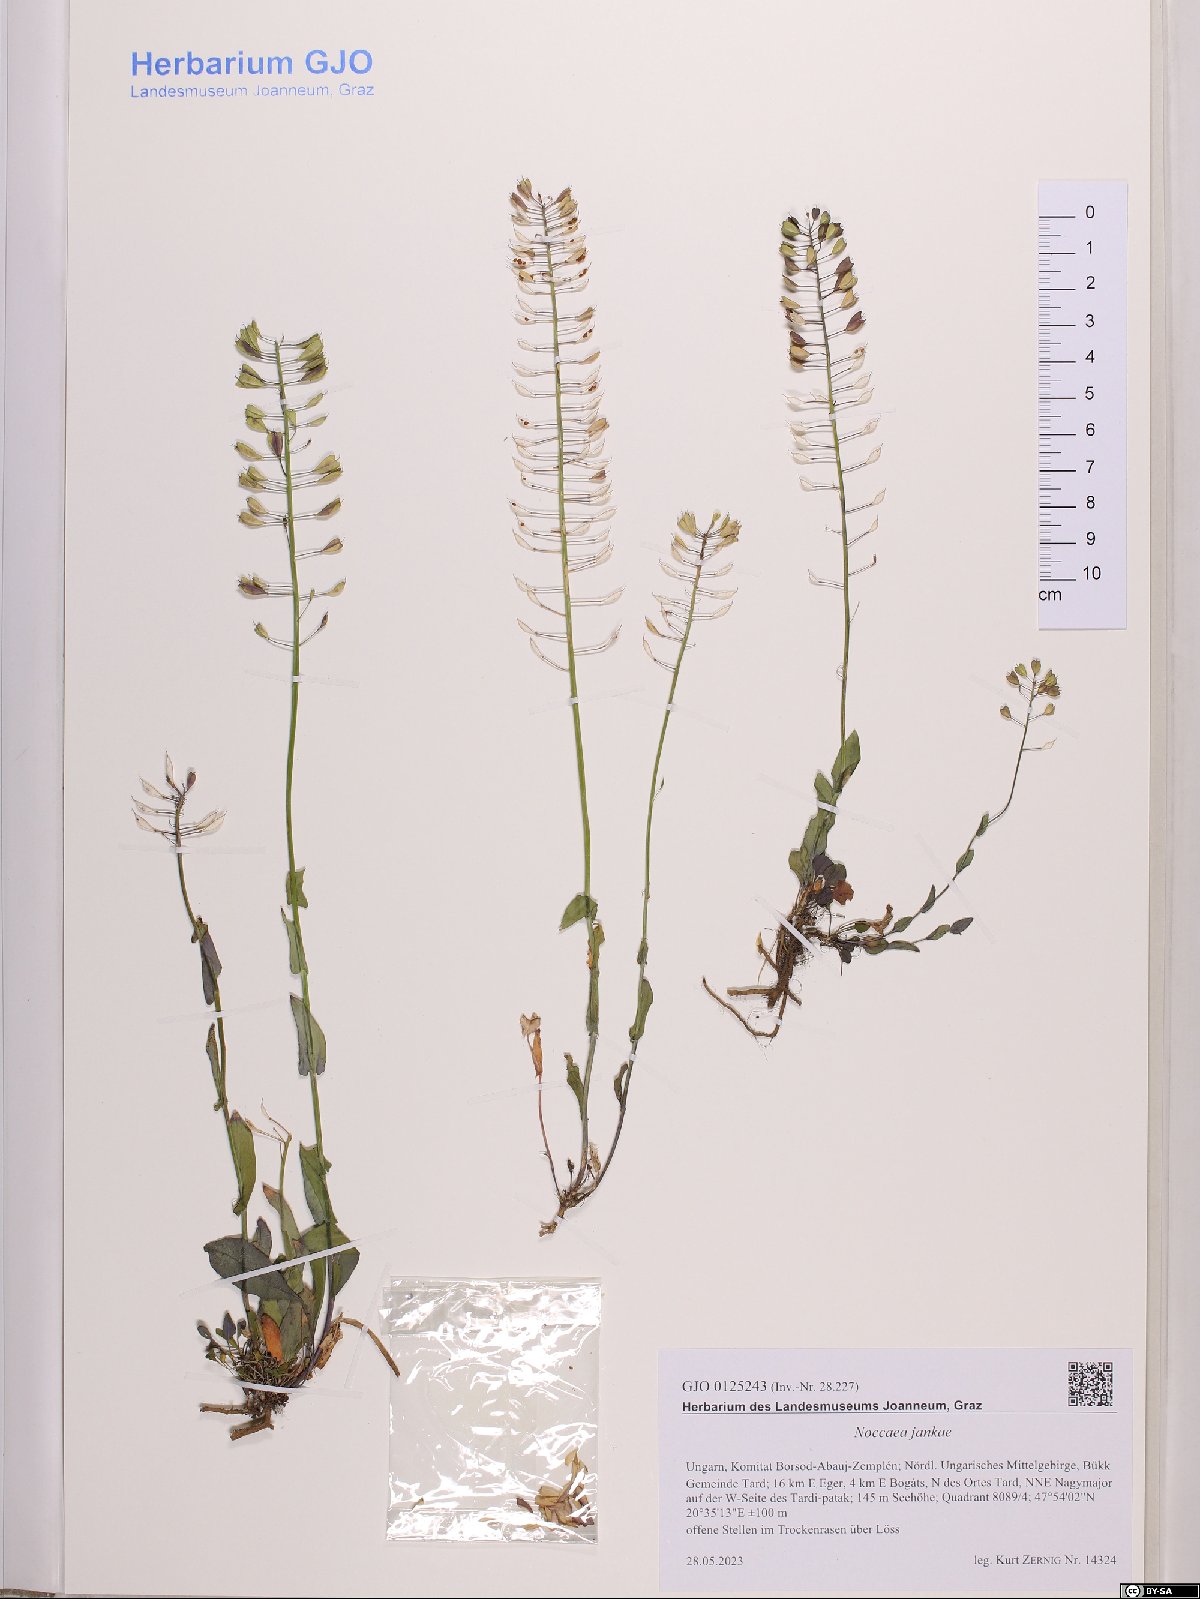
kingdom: Plantae
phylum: Tracheophyta
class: Magnoliopsida
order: Brassicales
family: Brassicaceae
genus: Noccaea
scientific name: Noccaea jankae
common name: Slovak penny-cress
